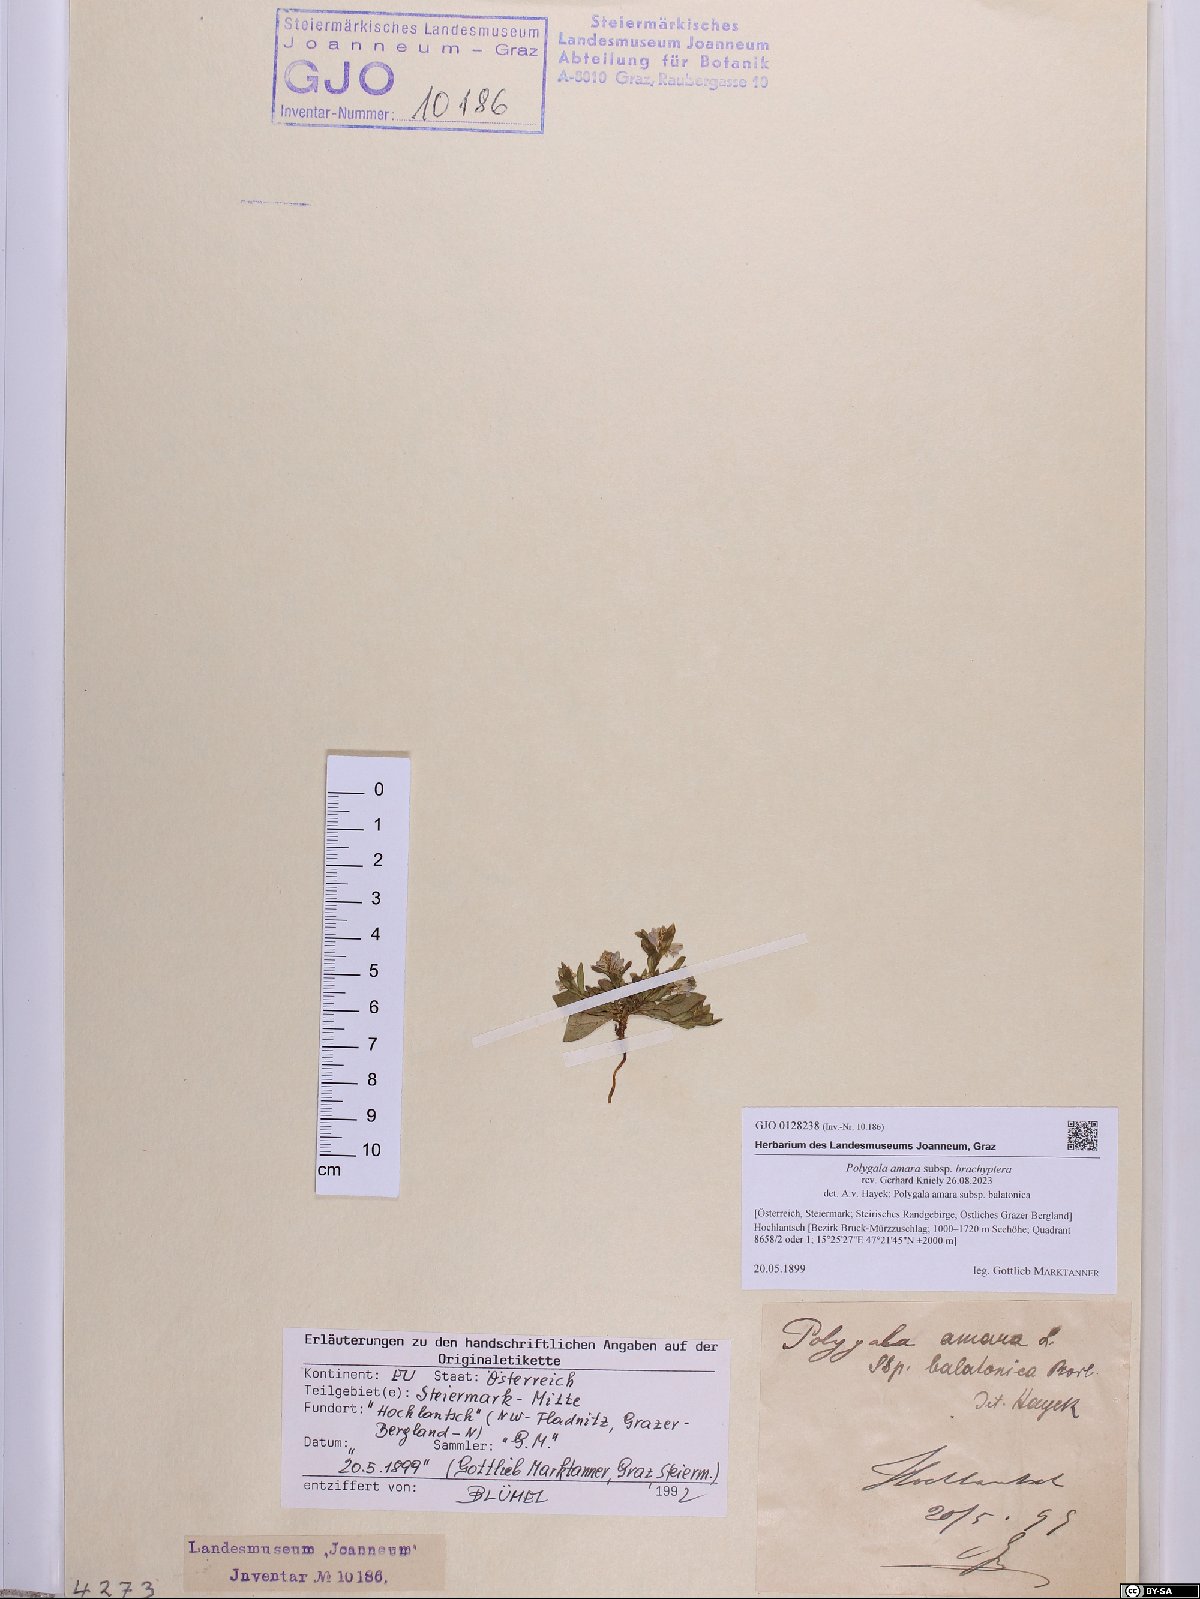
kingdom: Plantae
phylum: Tracheophyta
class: Magnoliopsida
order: Fabales
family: Polygalaceae
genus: Polygala
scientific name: Polygala amara
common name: Milkwort
